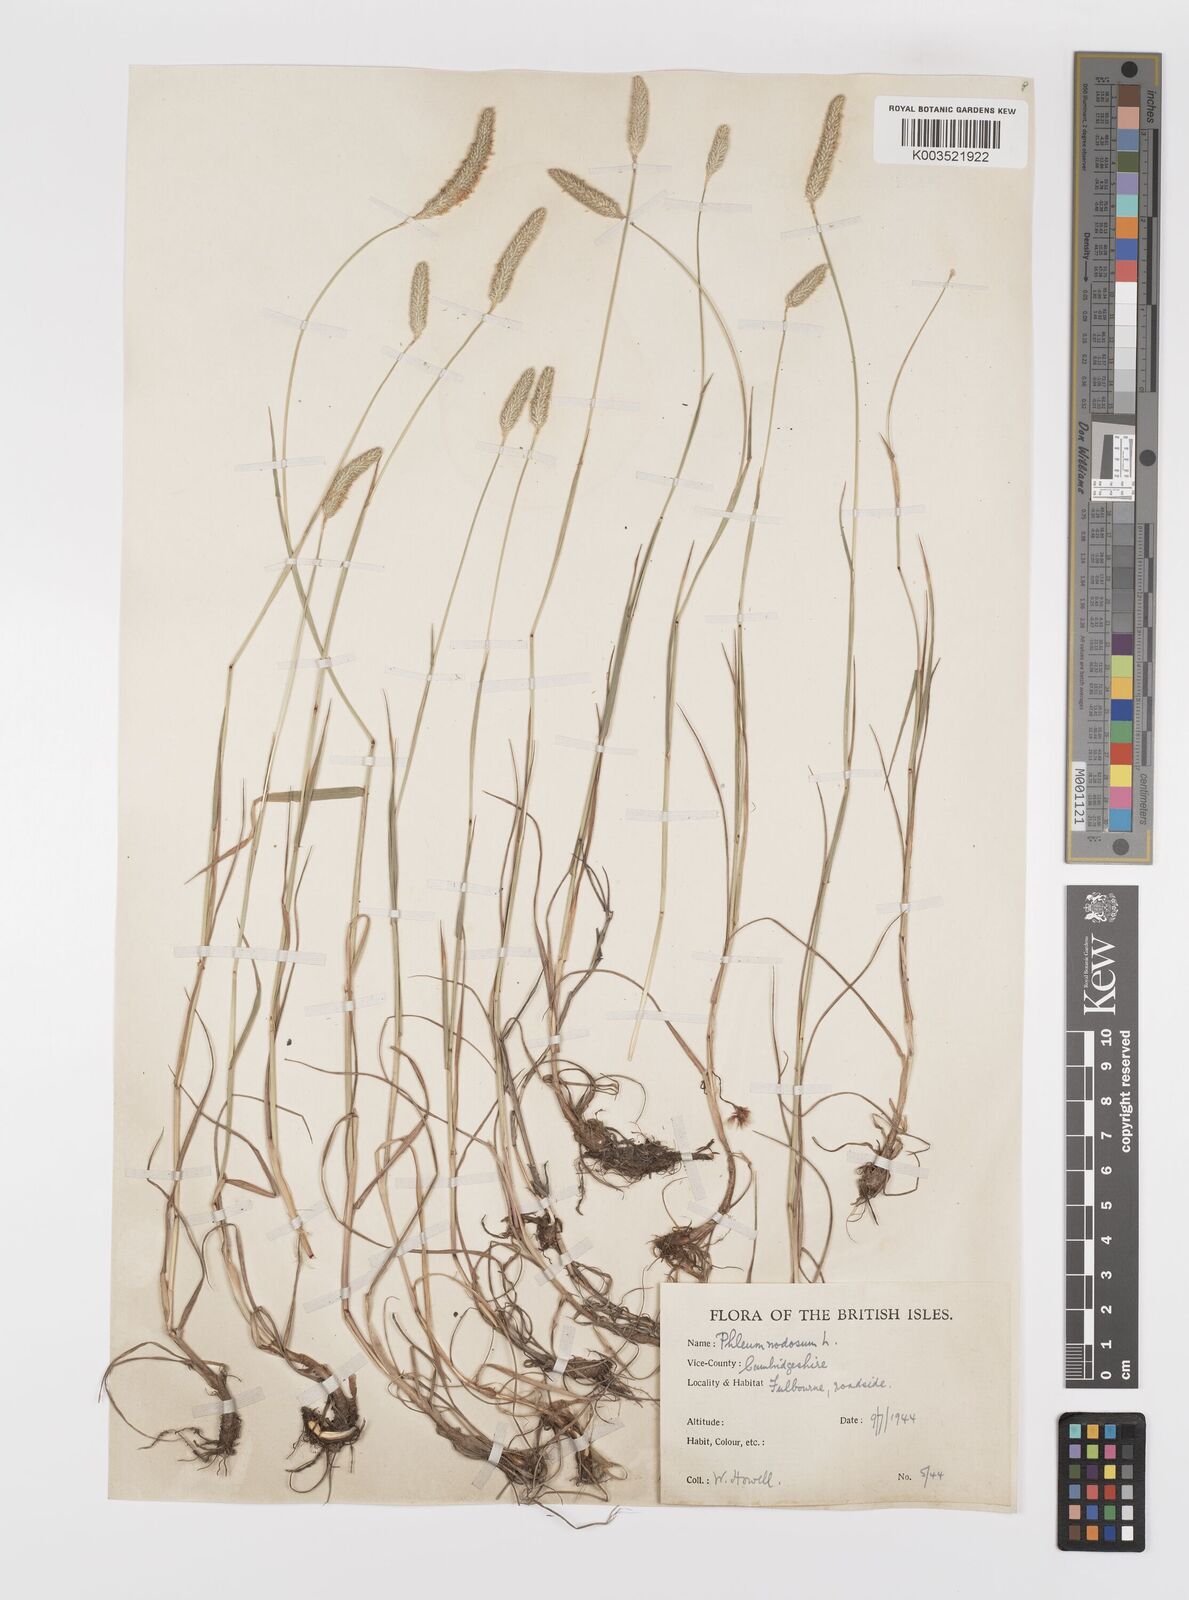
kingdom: Plantae
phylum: Tracheophyta
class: Liliopsida
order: Poales
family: Poaceae
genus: Phleum
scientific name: Phleum bertolonii
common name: Smaller cat's-tail
